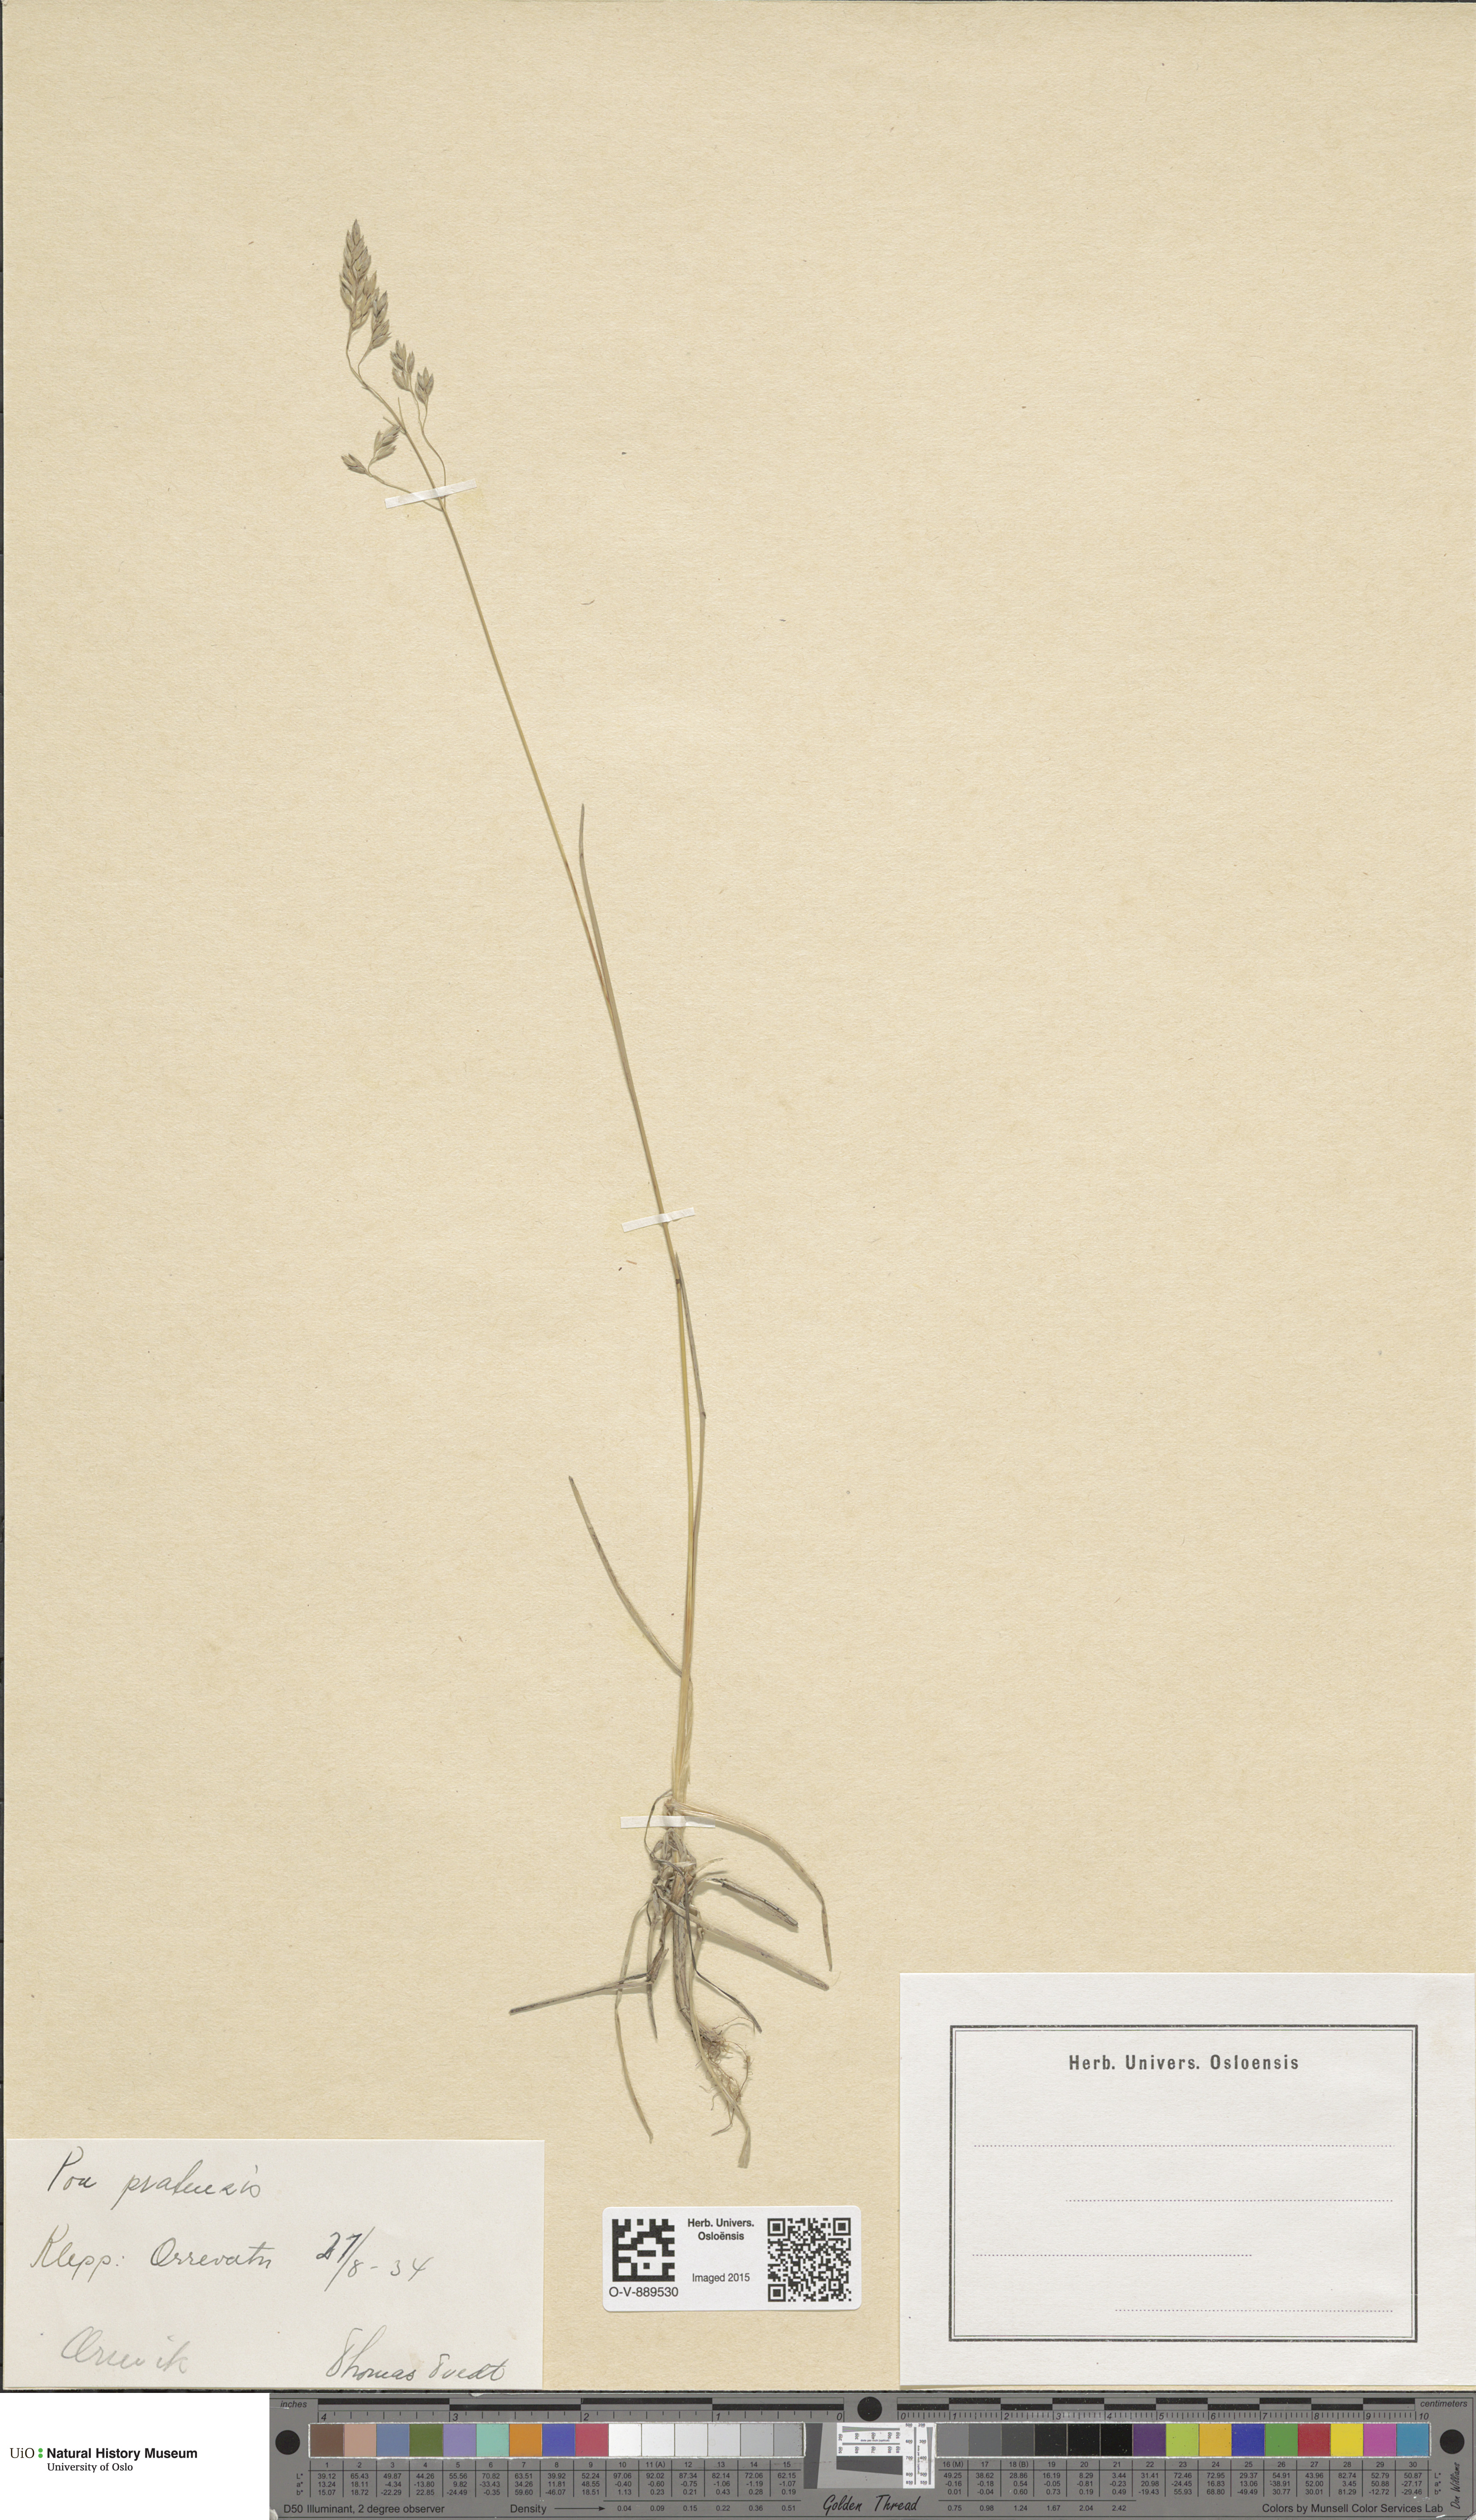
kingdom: Plantae
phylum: Tracheophyta
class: Liliopsida
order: Poales
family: Poaceae
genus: Poa
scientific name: Poa pratensis
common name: Kentucky bluegrass
